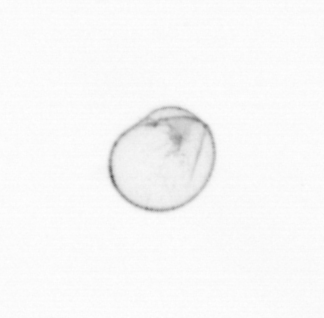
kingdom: Chromista
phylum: Myzozoa
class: Dinophyceae
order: Noctilucales
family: Noctilucaceae
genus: Noctiluca
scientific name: Noctiluca scintillans
